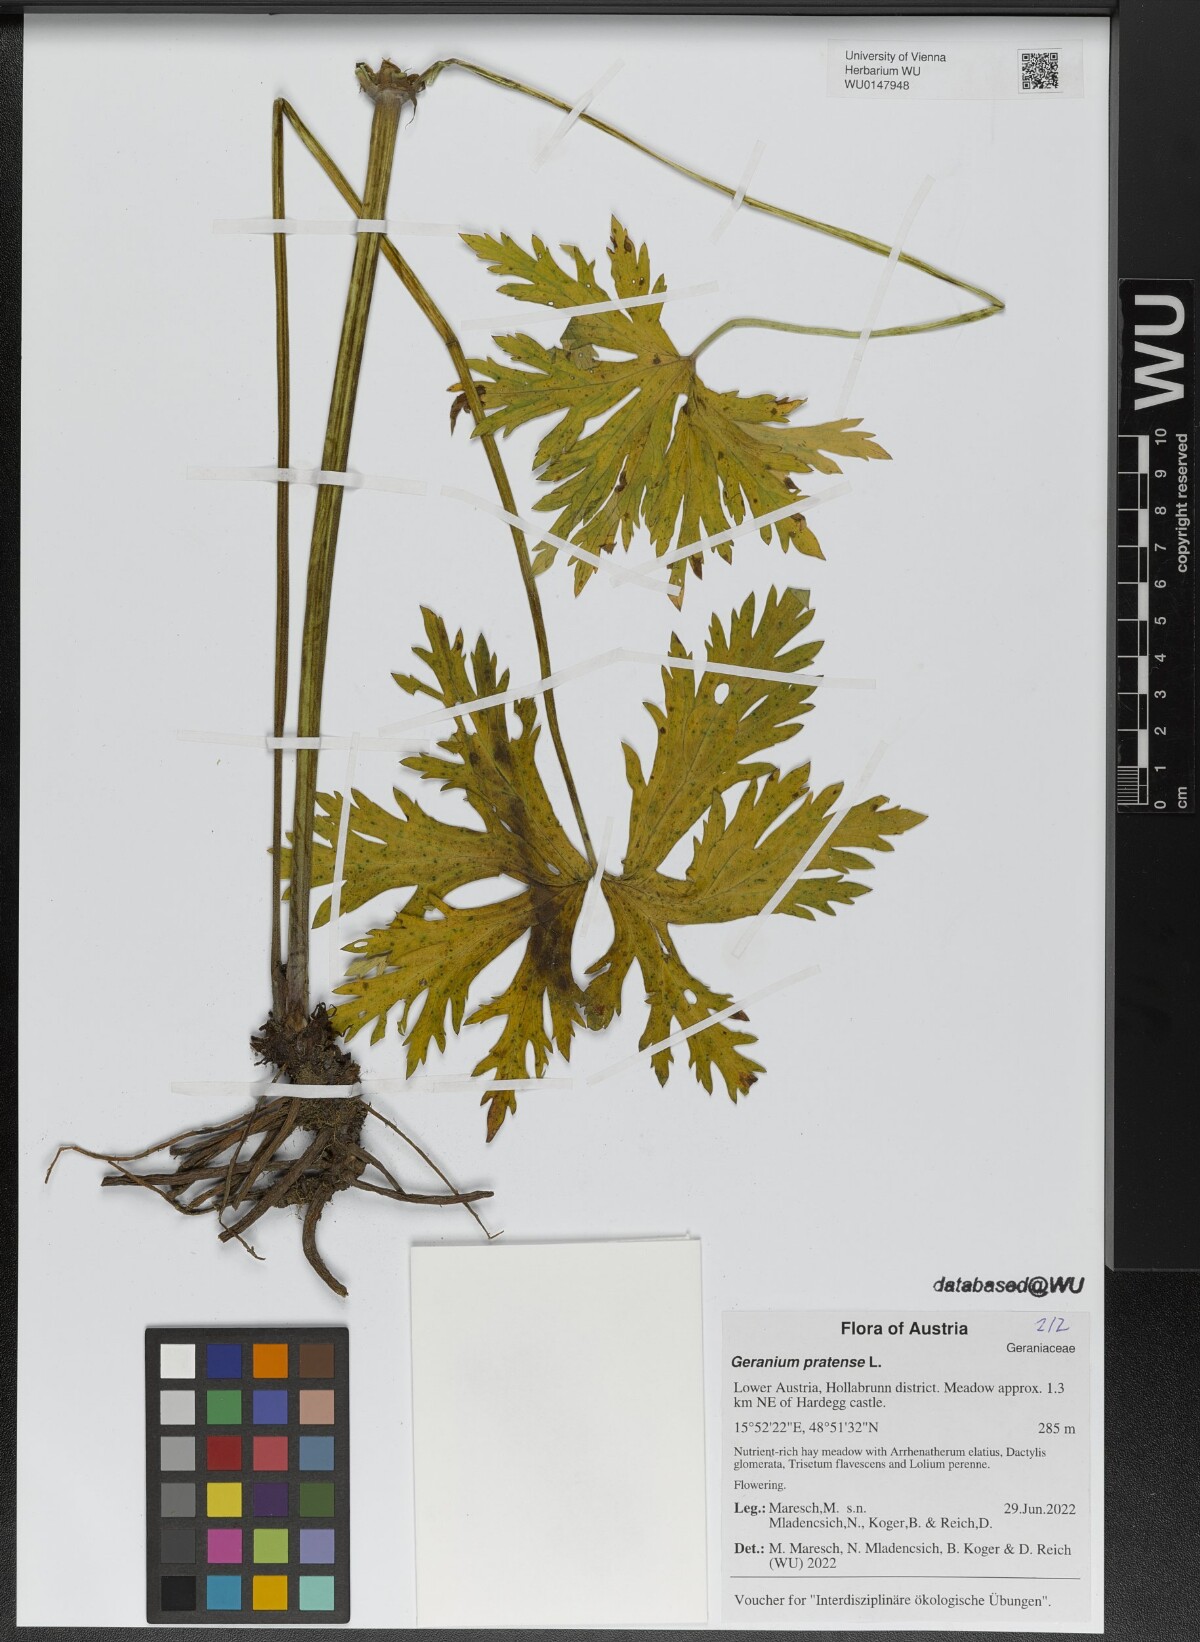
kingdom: Plantae
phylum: Tracheophyta
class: Magnoliopsida
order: Geraniales
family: Geraniaceae
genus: Geranium
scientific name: Geranium pratense
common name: Meadow crane's-bill
